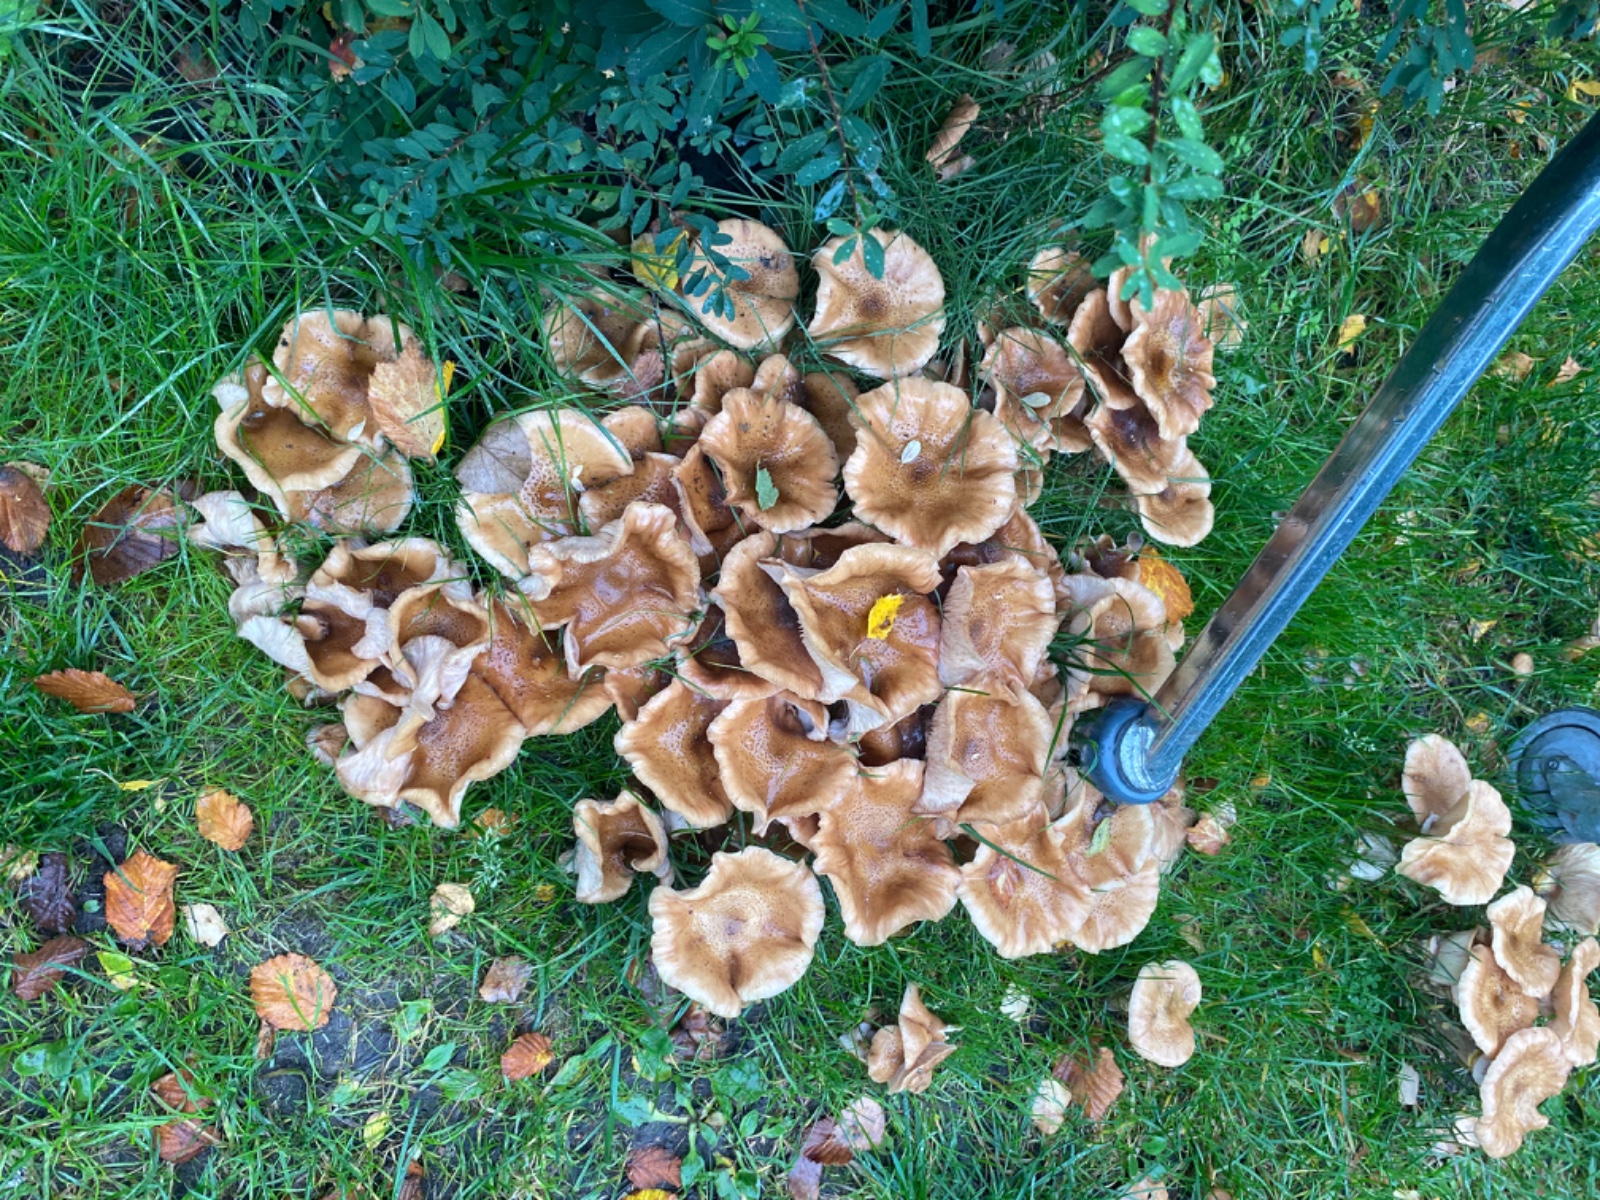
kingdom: Fungi
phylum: Basidiomycota
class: Agaricomycetes
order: Agaricales
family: Physalacriaceae
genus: Armillaria
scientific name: Armillaria
